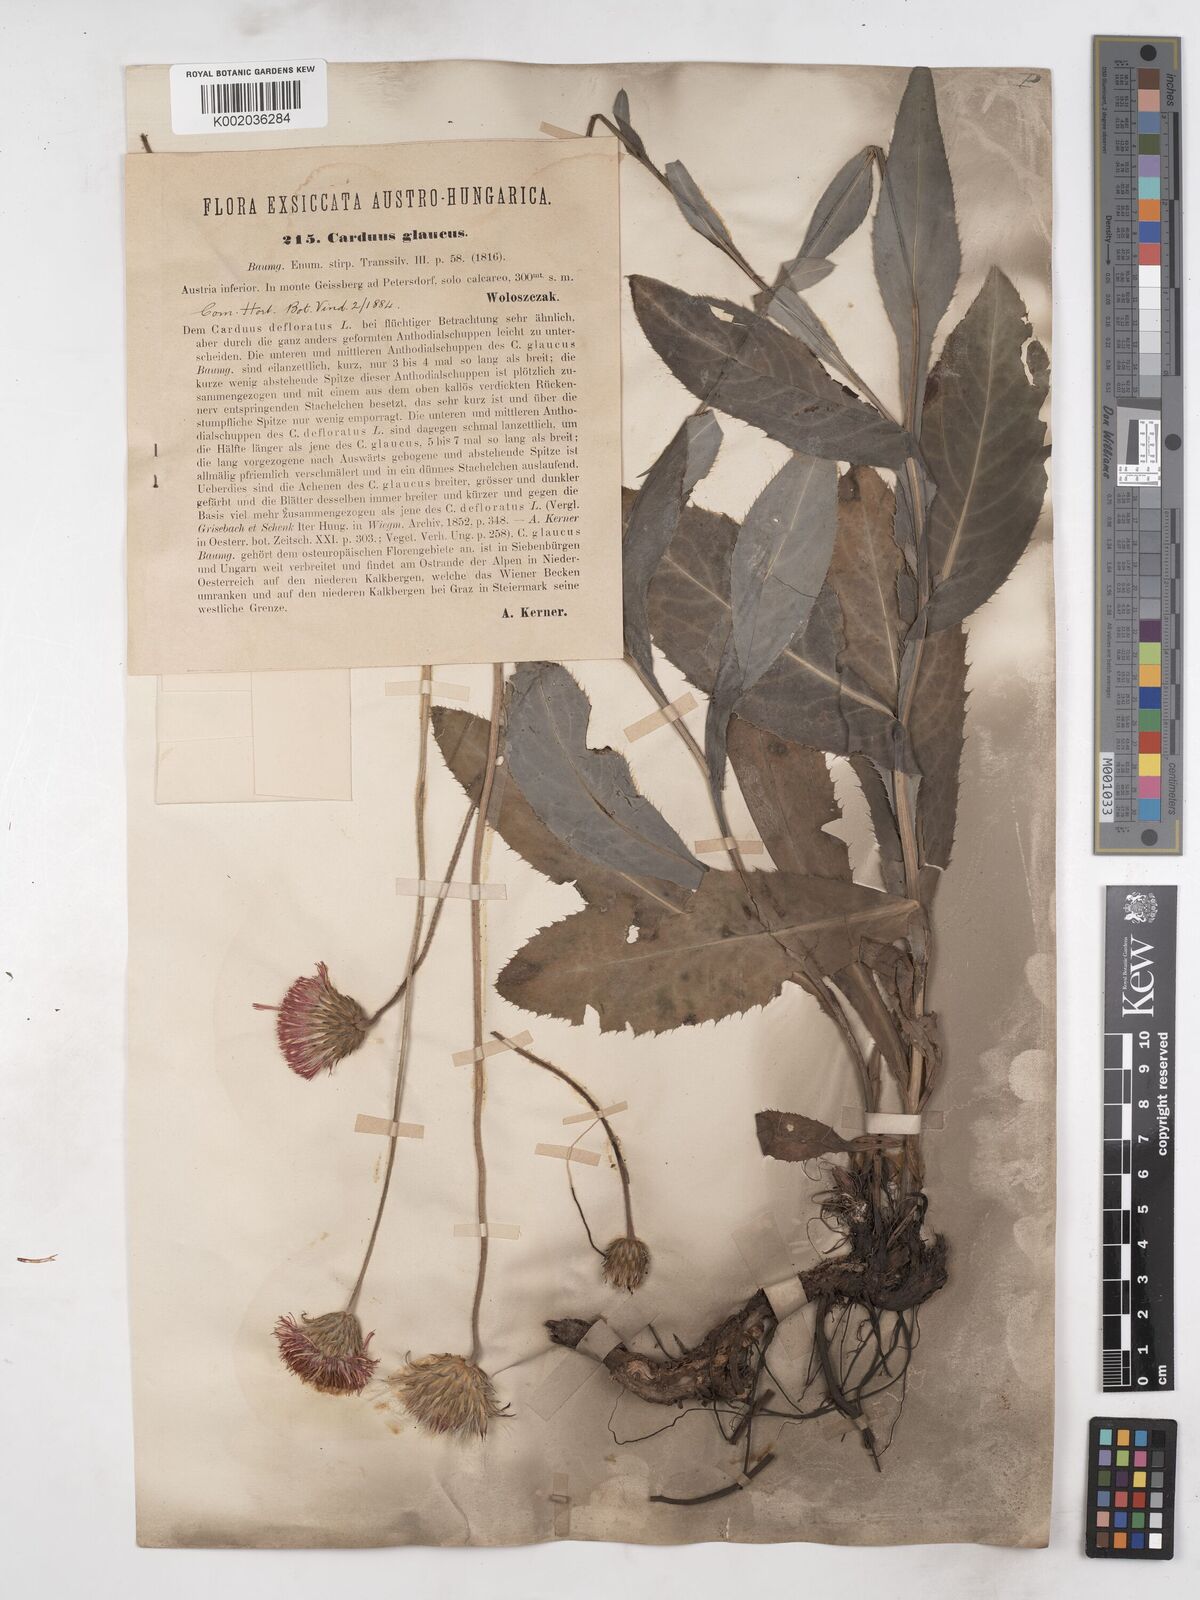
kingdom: Plantae
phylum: Tracheophyta
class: Magnoliopsida
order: Asterales
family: Asteraceae
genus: Carduus
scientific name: Carduus defloratus
